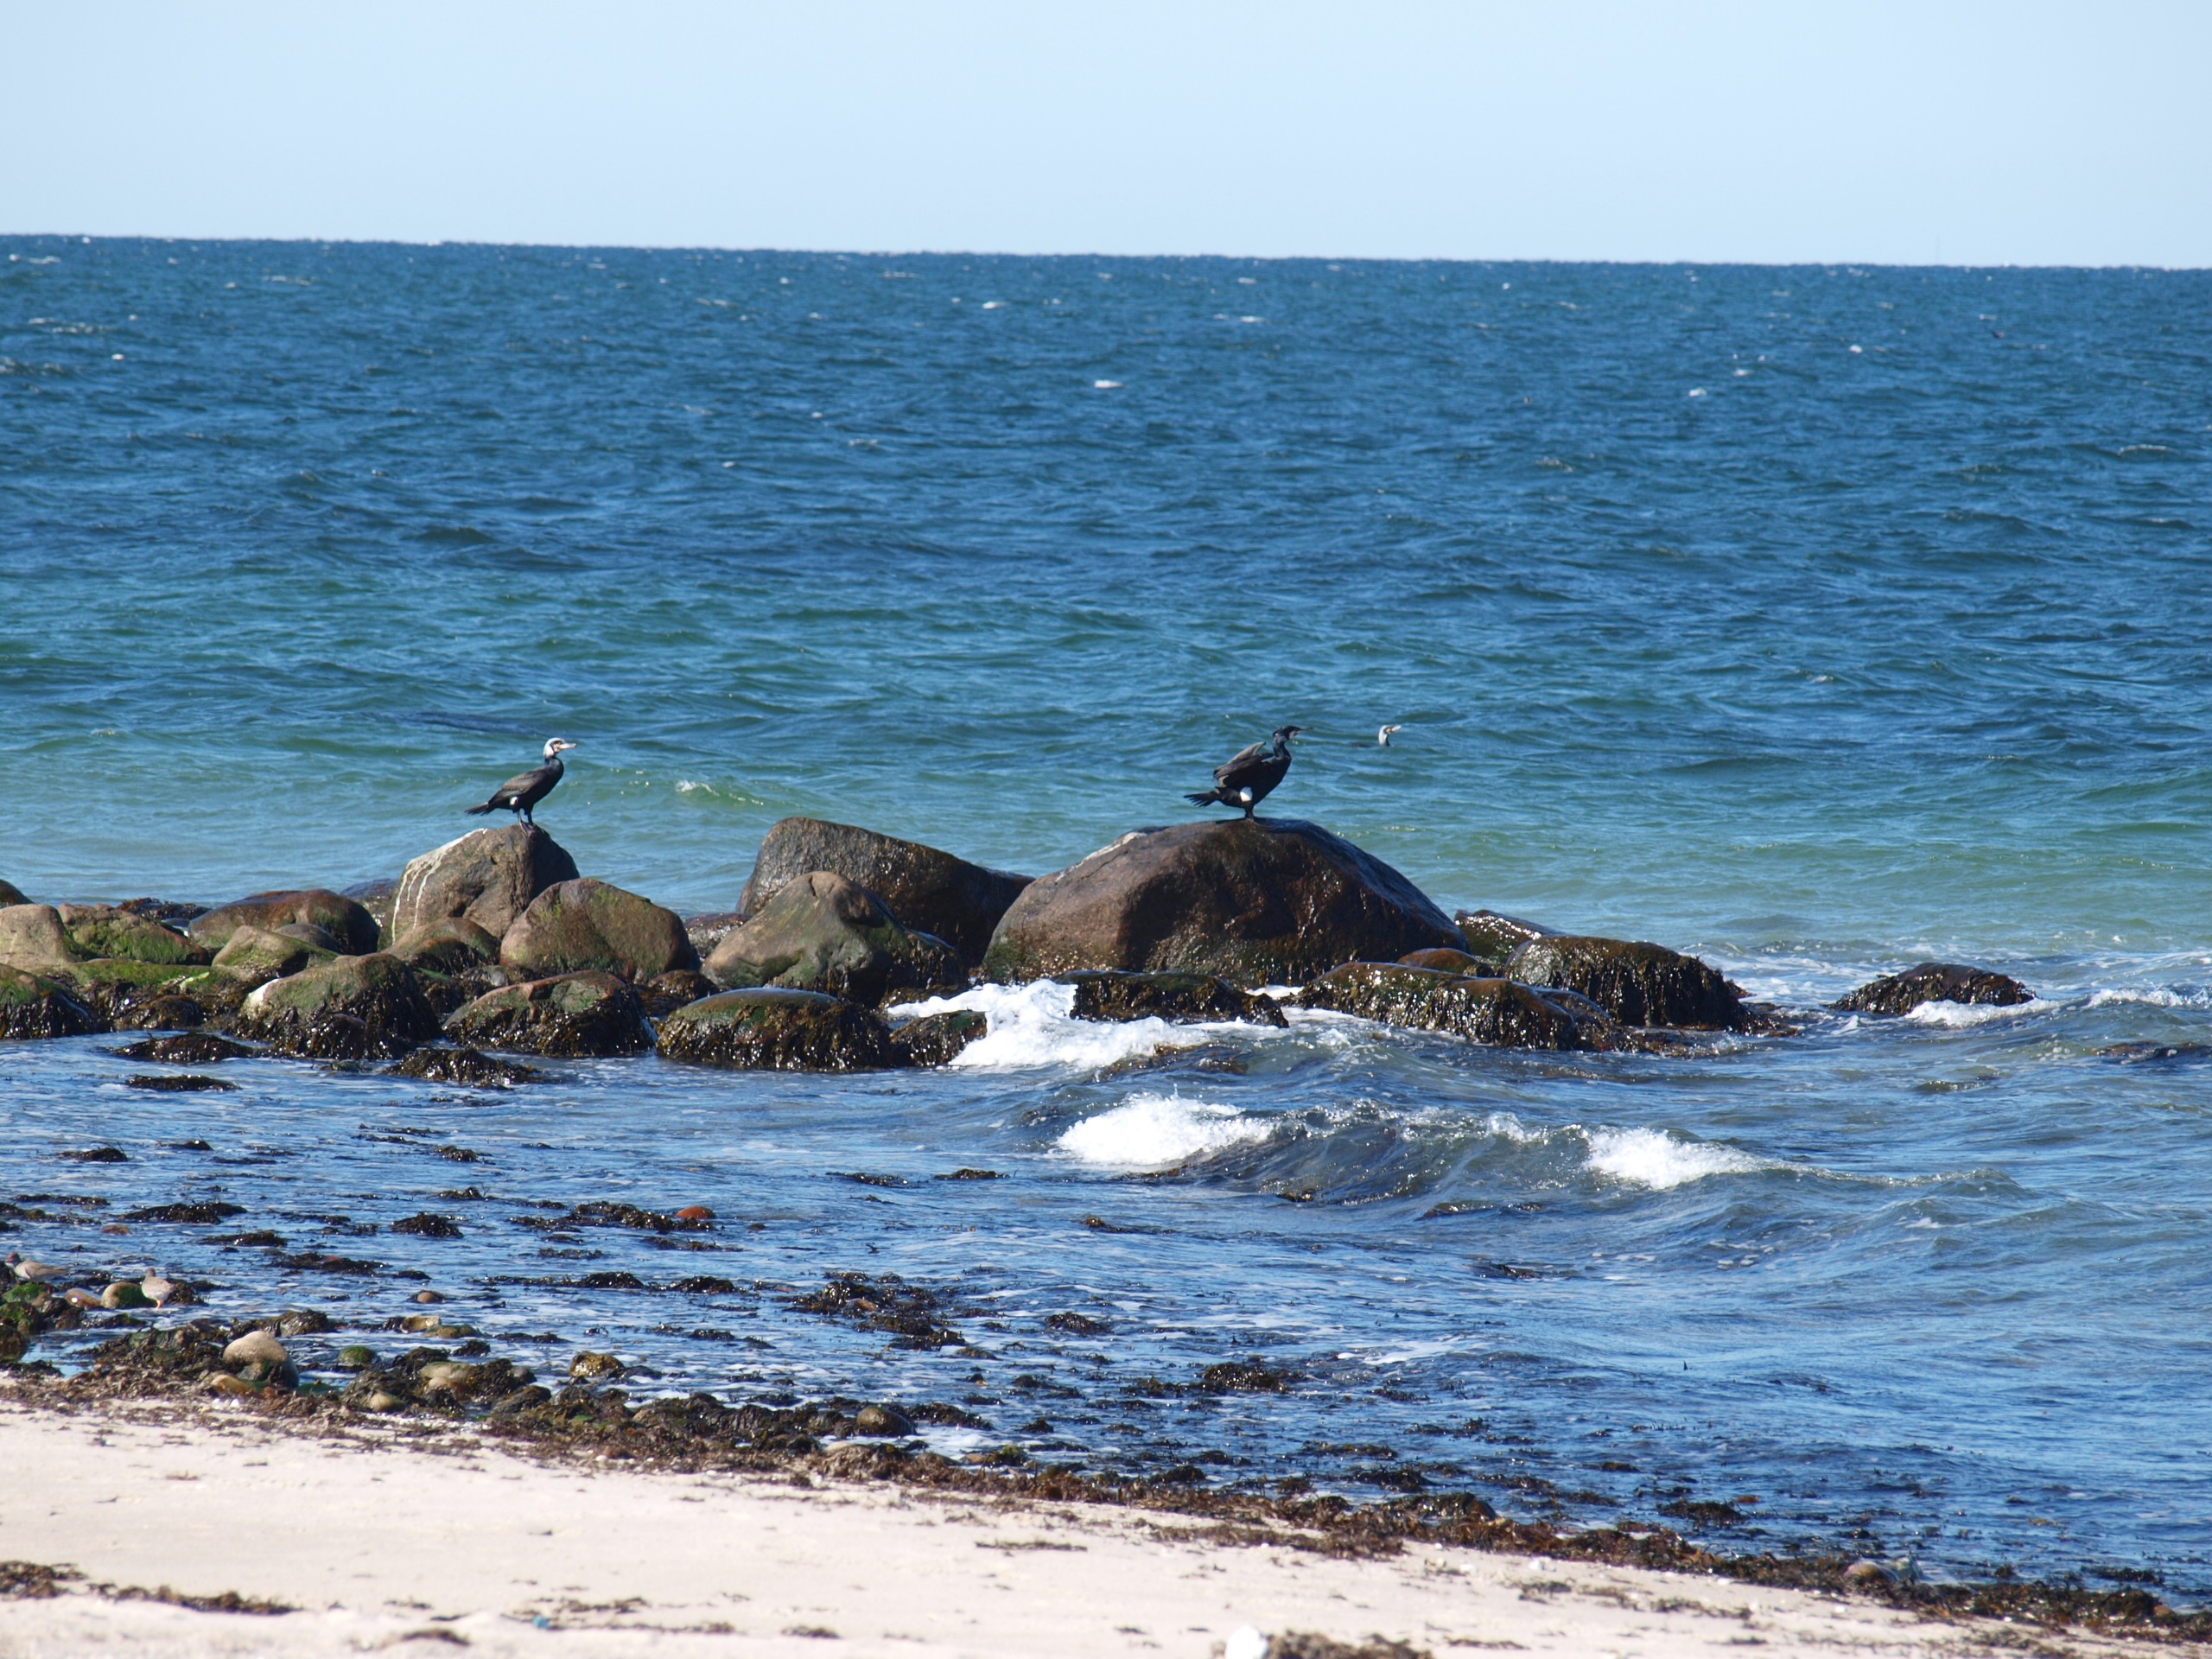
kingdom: Animalia
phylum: Chordata
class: Aves
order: Suliformes
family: Phalacrocoracidae
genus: Phalacrocorax
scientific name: Phalacrocorax carbo
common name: Skarv
